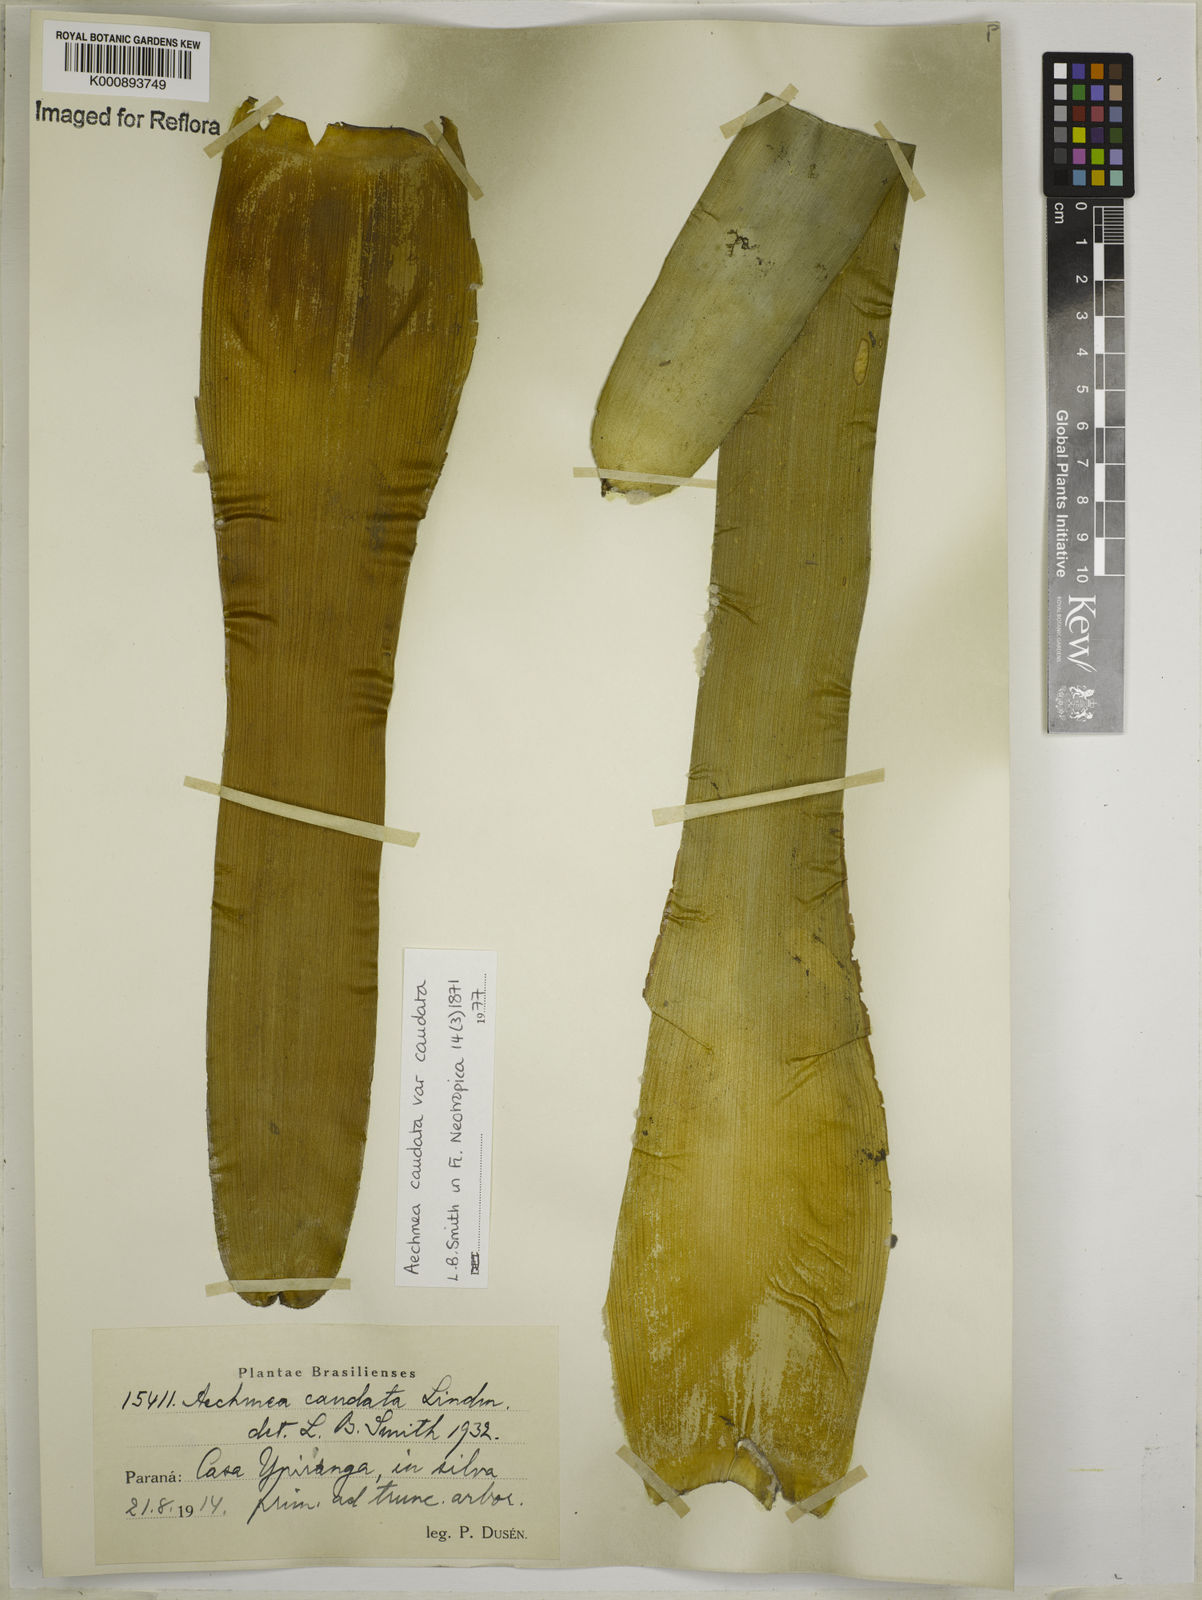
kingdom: Plantae
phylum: Tracheophyta
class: Liliopsida
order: Poales
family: Bromeliaceae
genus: Aechmea
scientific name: Aechmea caudata
